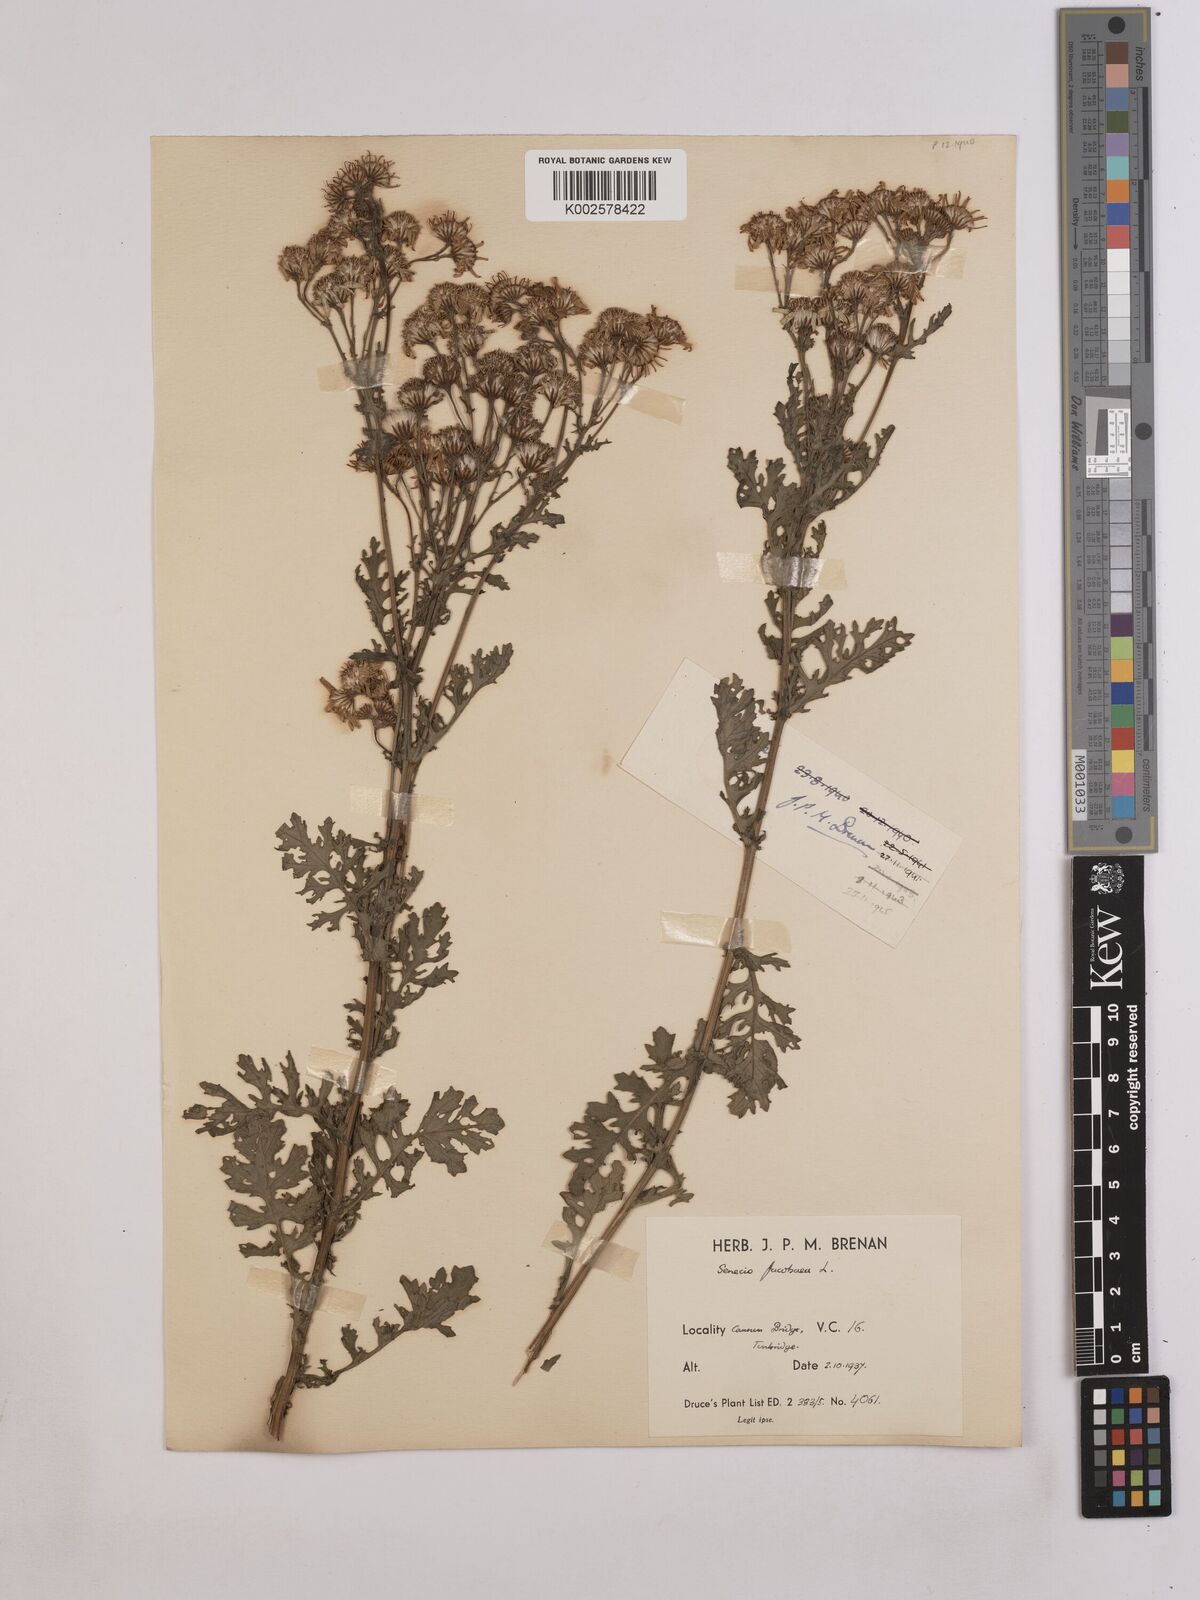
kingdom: Plantae
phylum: Tracheophyta
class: Magnoliopsida
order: Asterales
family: Asteraceae
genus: Jacobaea
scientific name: Jacobaea vulgaris
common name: Stinking willie
